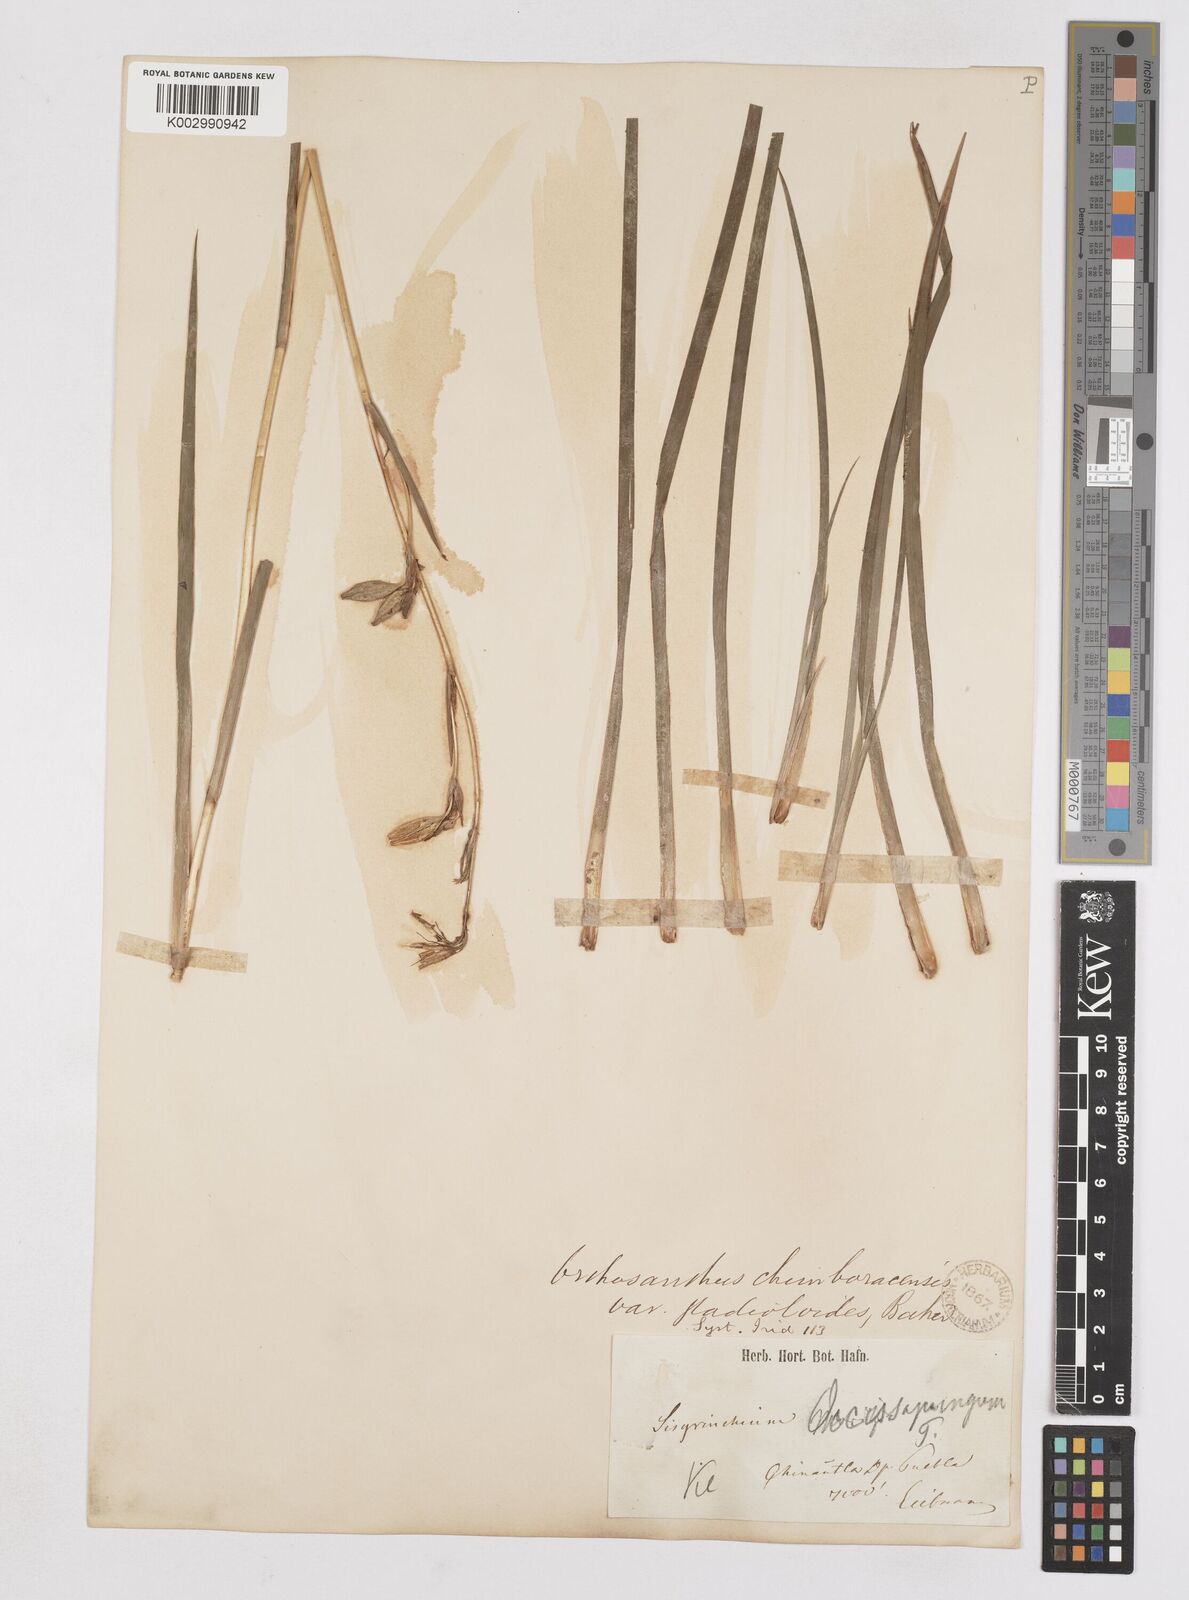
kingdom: Plantae
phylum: Tracheophyta
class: Liliopsida
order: Asparagales
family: Iridaceae
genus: Orthrosanthus
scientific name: Orthrosanthus chimboracensis
